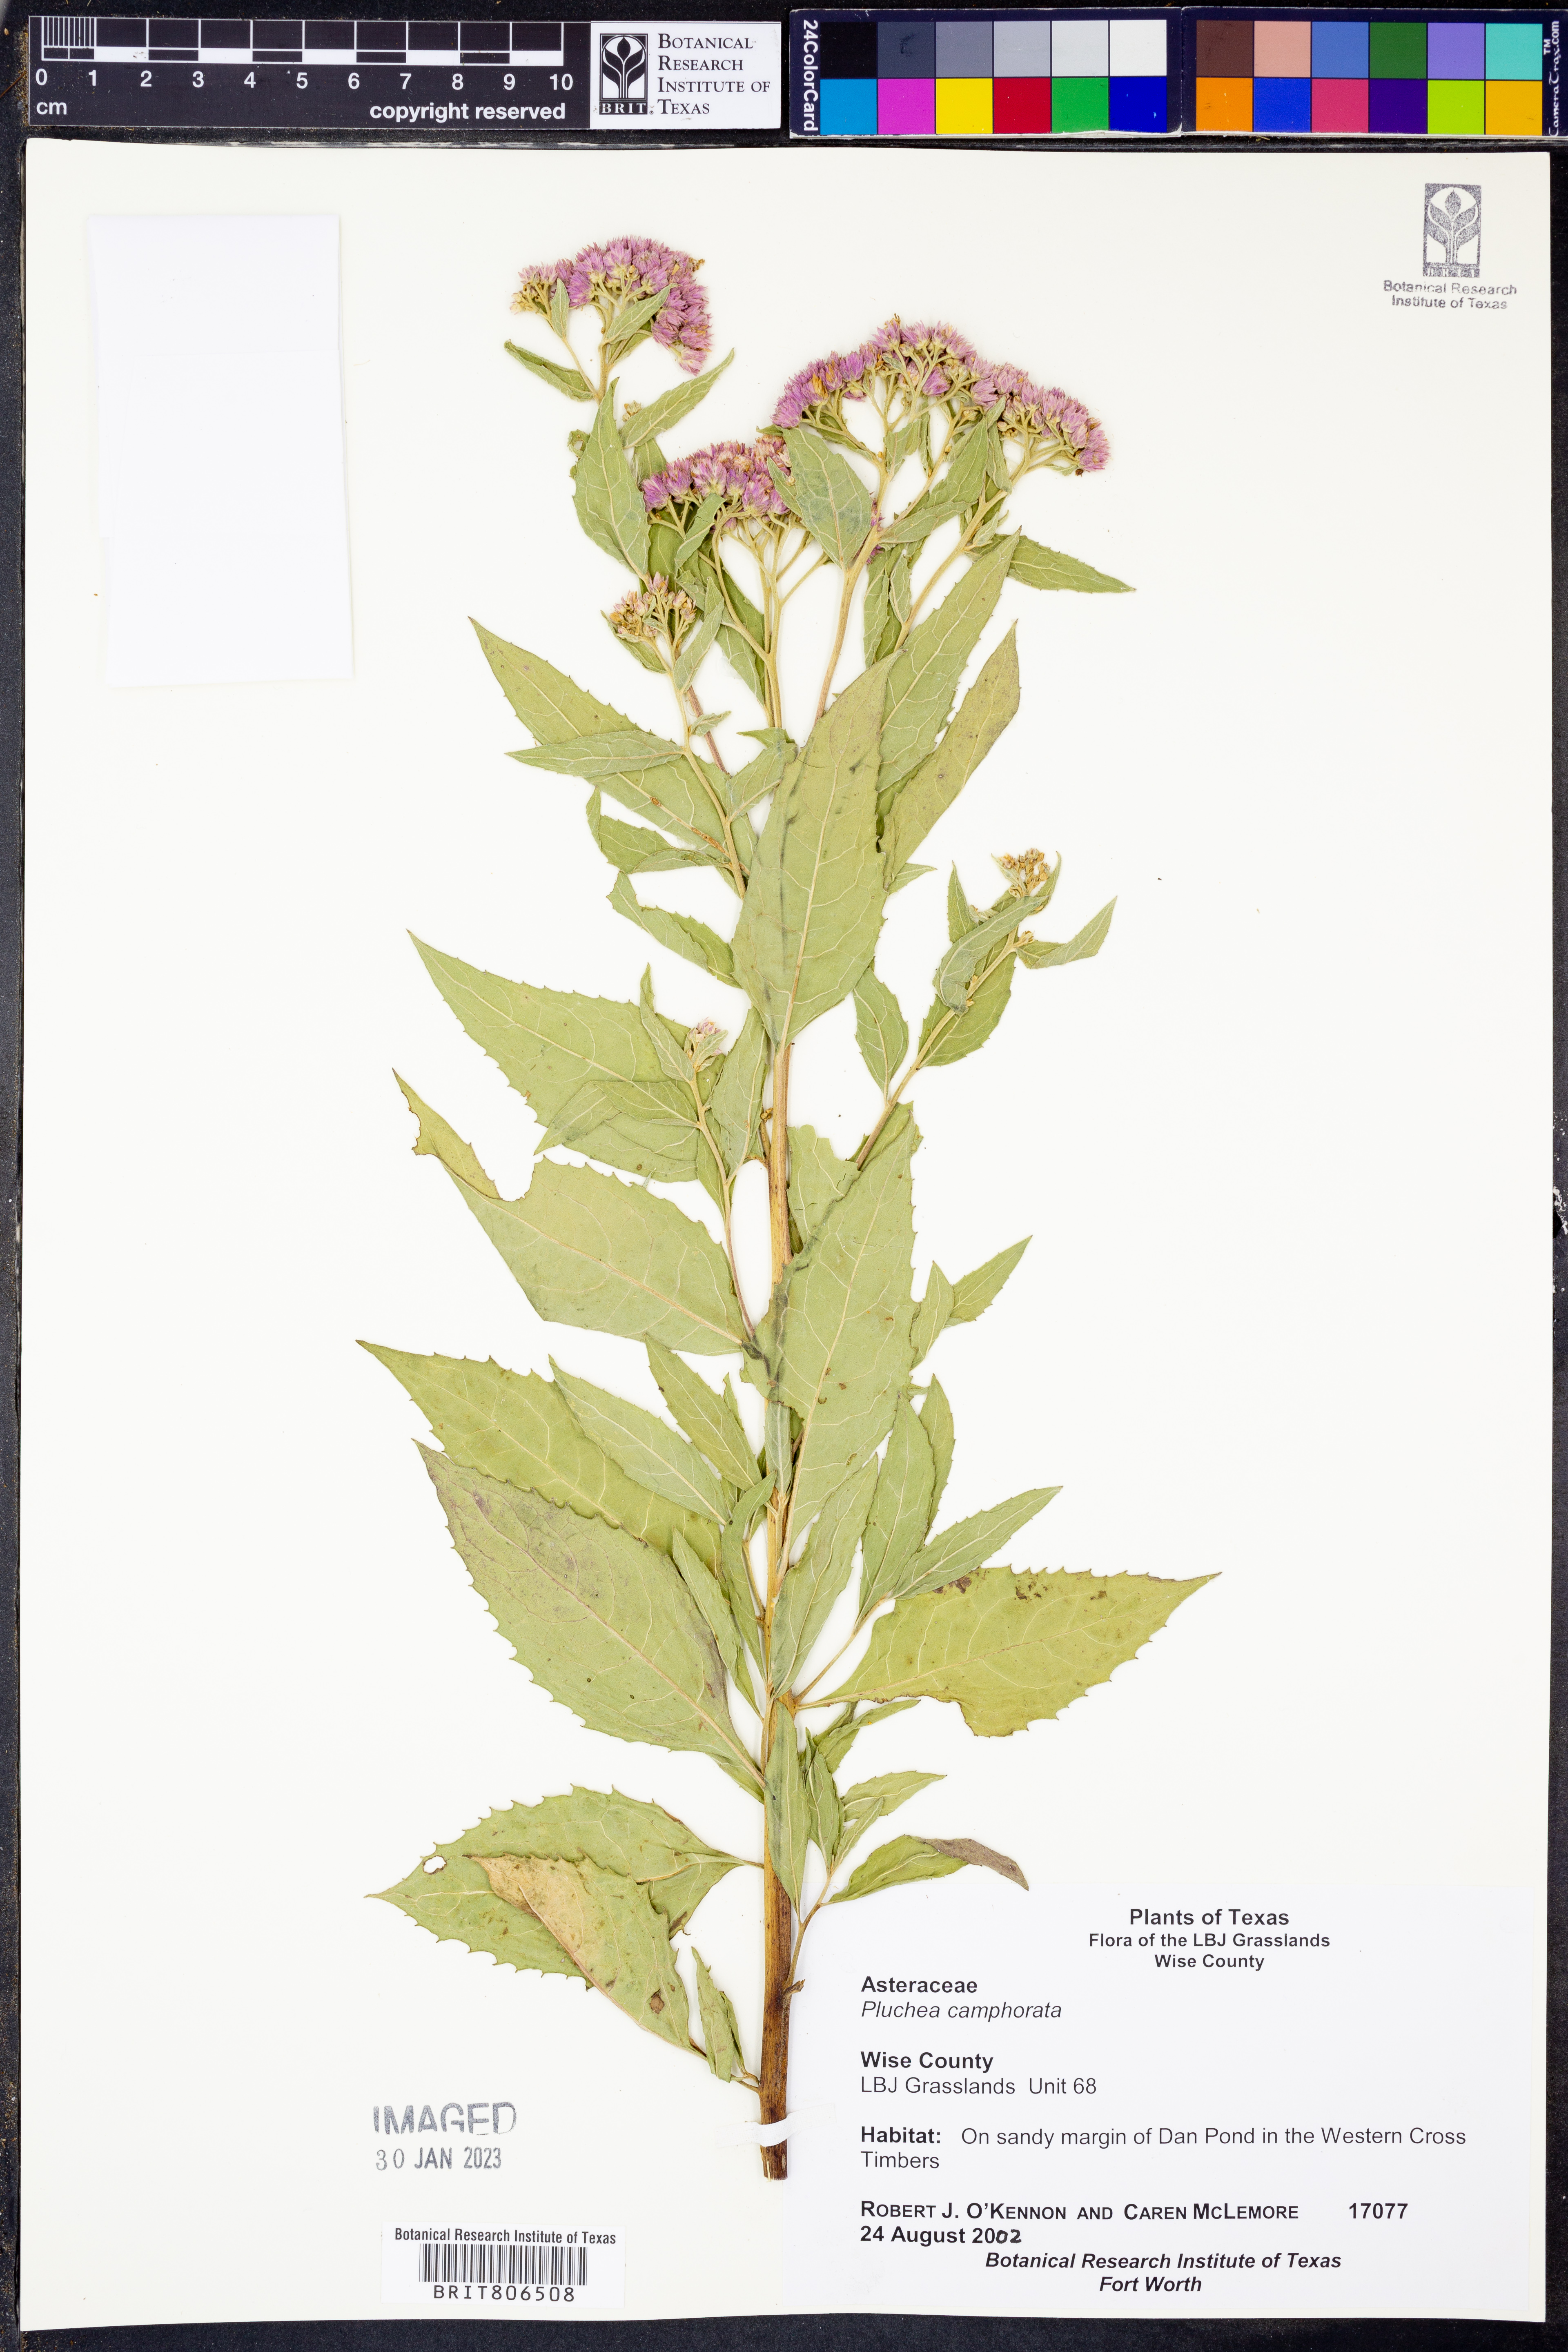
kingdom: Plantae
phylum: Tracheophyta
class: Magnoliopsida
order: Asterales
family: Asteraceae
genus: Pluchea
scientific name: Pluchea camphorata
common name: Camphor pluchea
